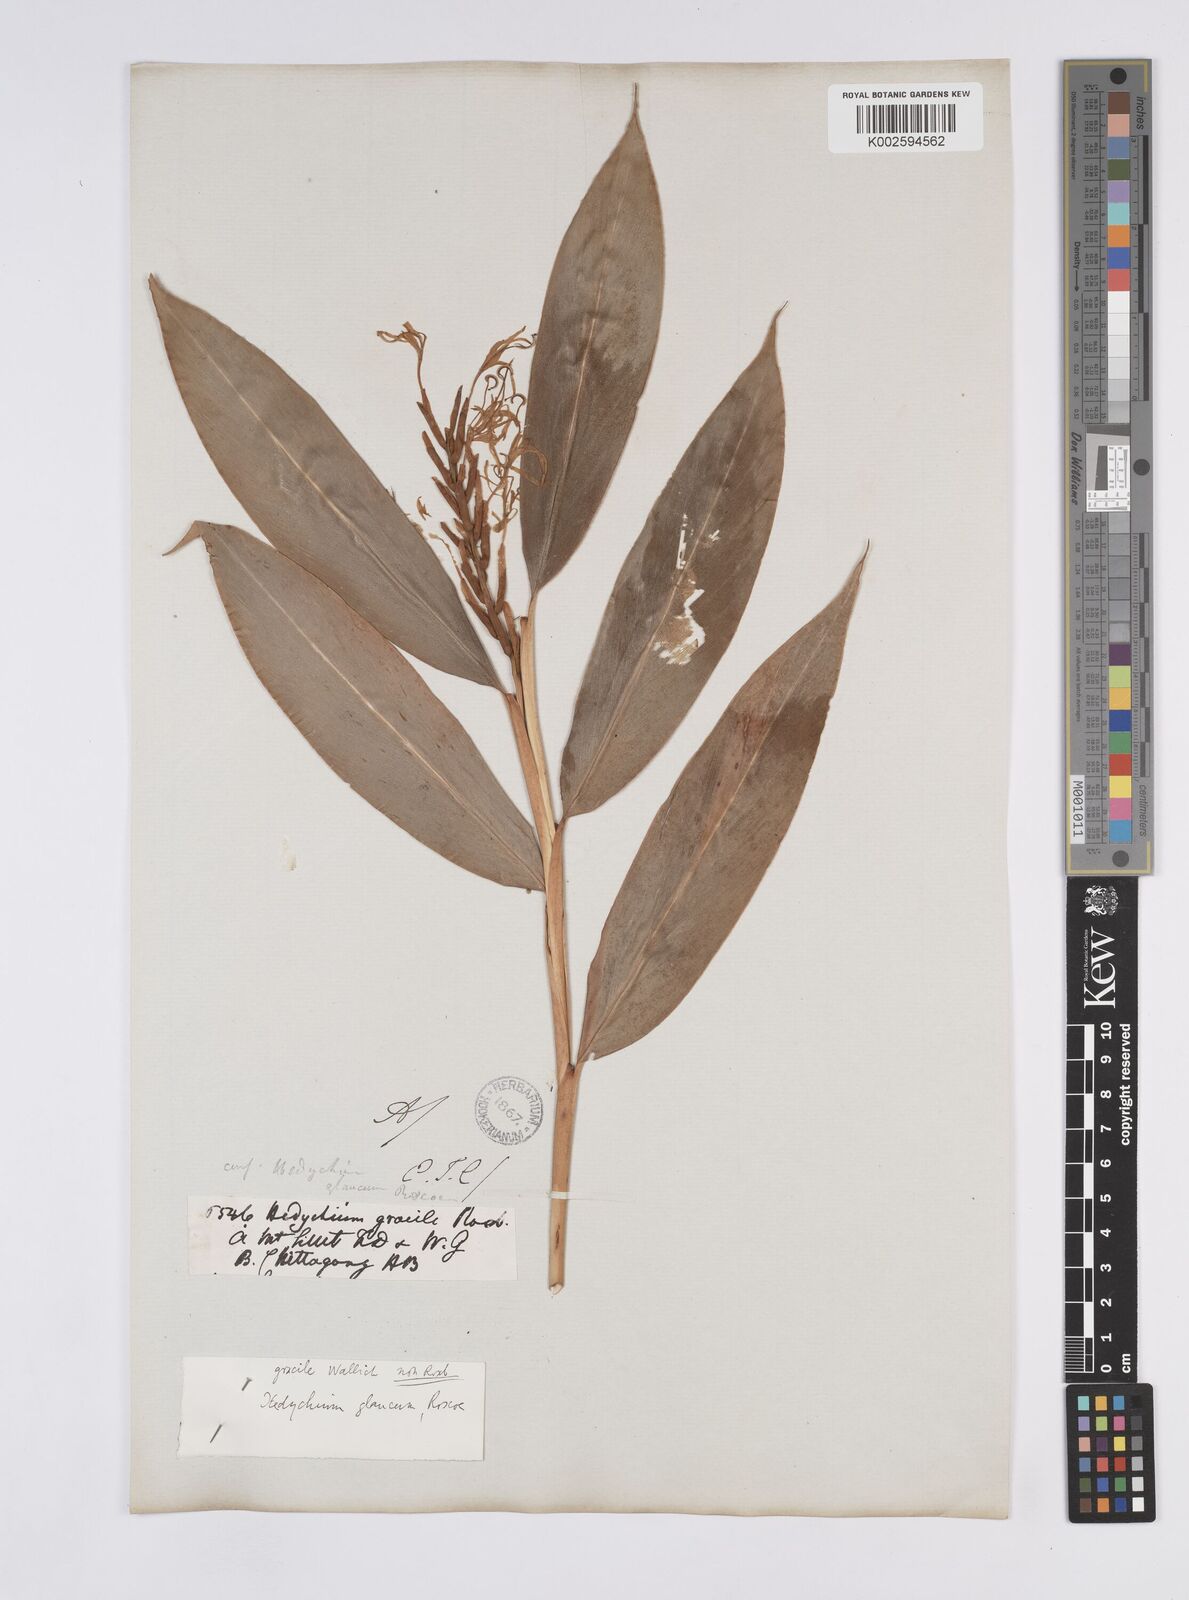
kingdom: Plantae
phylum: Tracheophyta
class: Liliopsida
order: Zingiberales
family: Zingiberaceae
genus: Hedychium
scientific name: Hedychium glaucum
